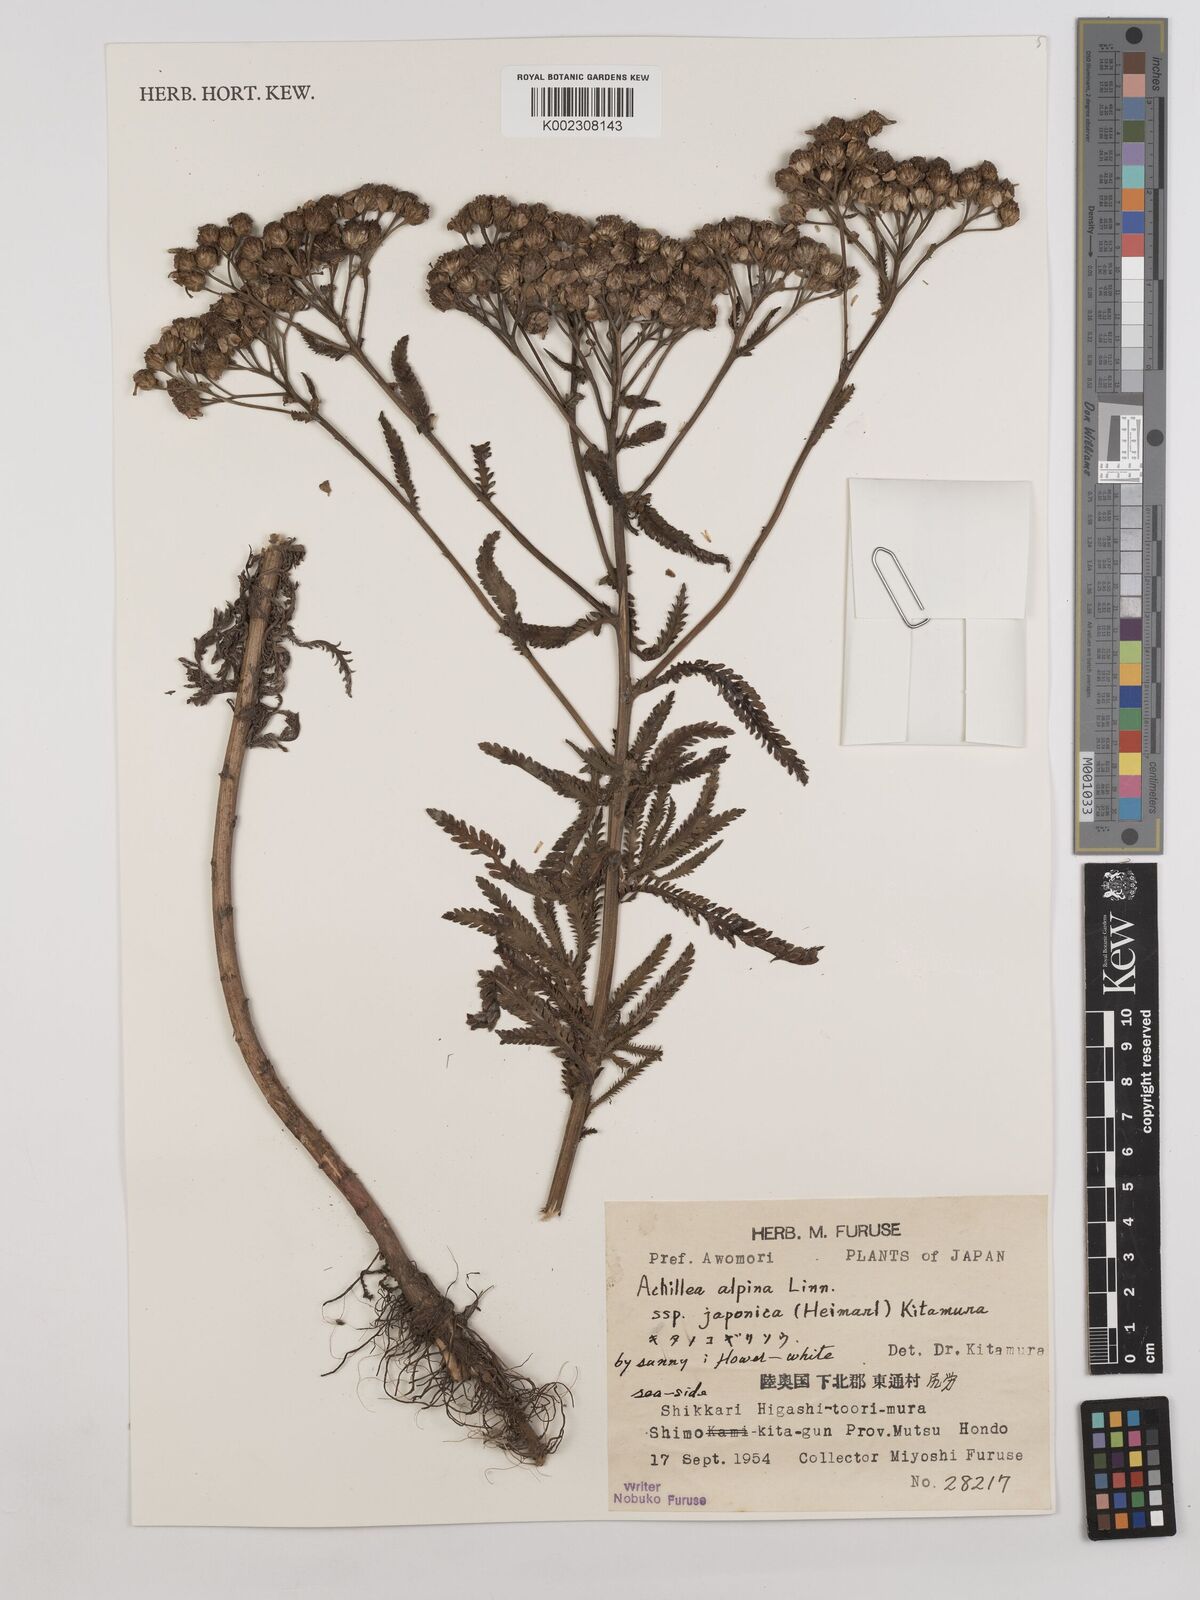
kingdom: Plantae
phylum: Tracheophyta
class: Magnoliopsida
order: Asterales
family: Asteraceae
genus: Achillea
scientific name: Achillea alpina
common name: Siberian yarrow
